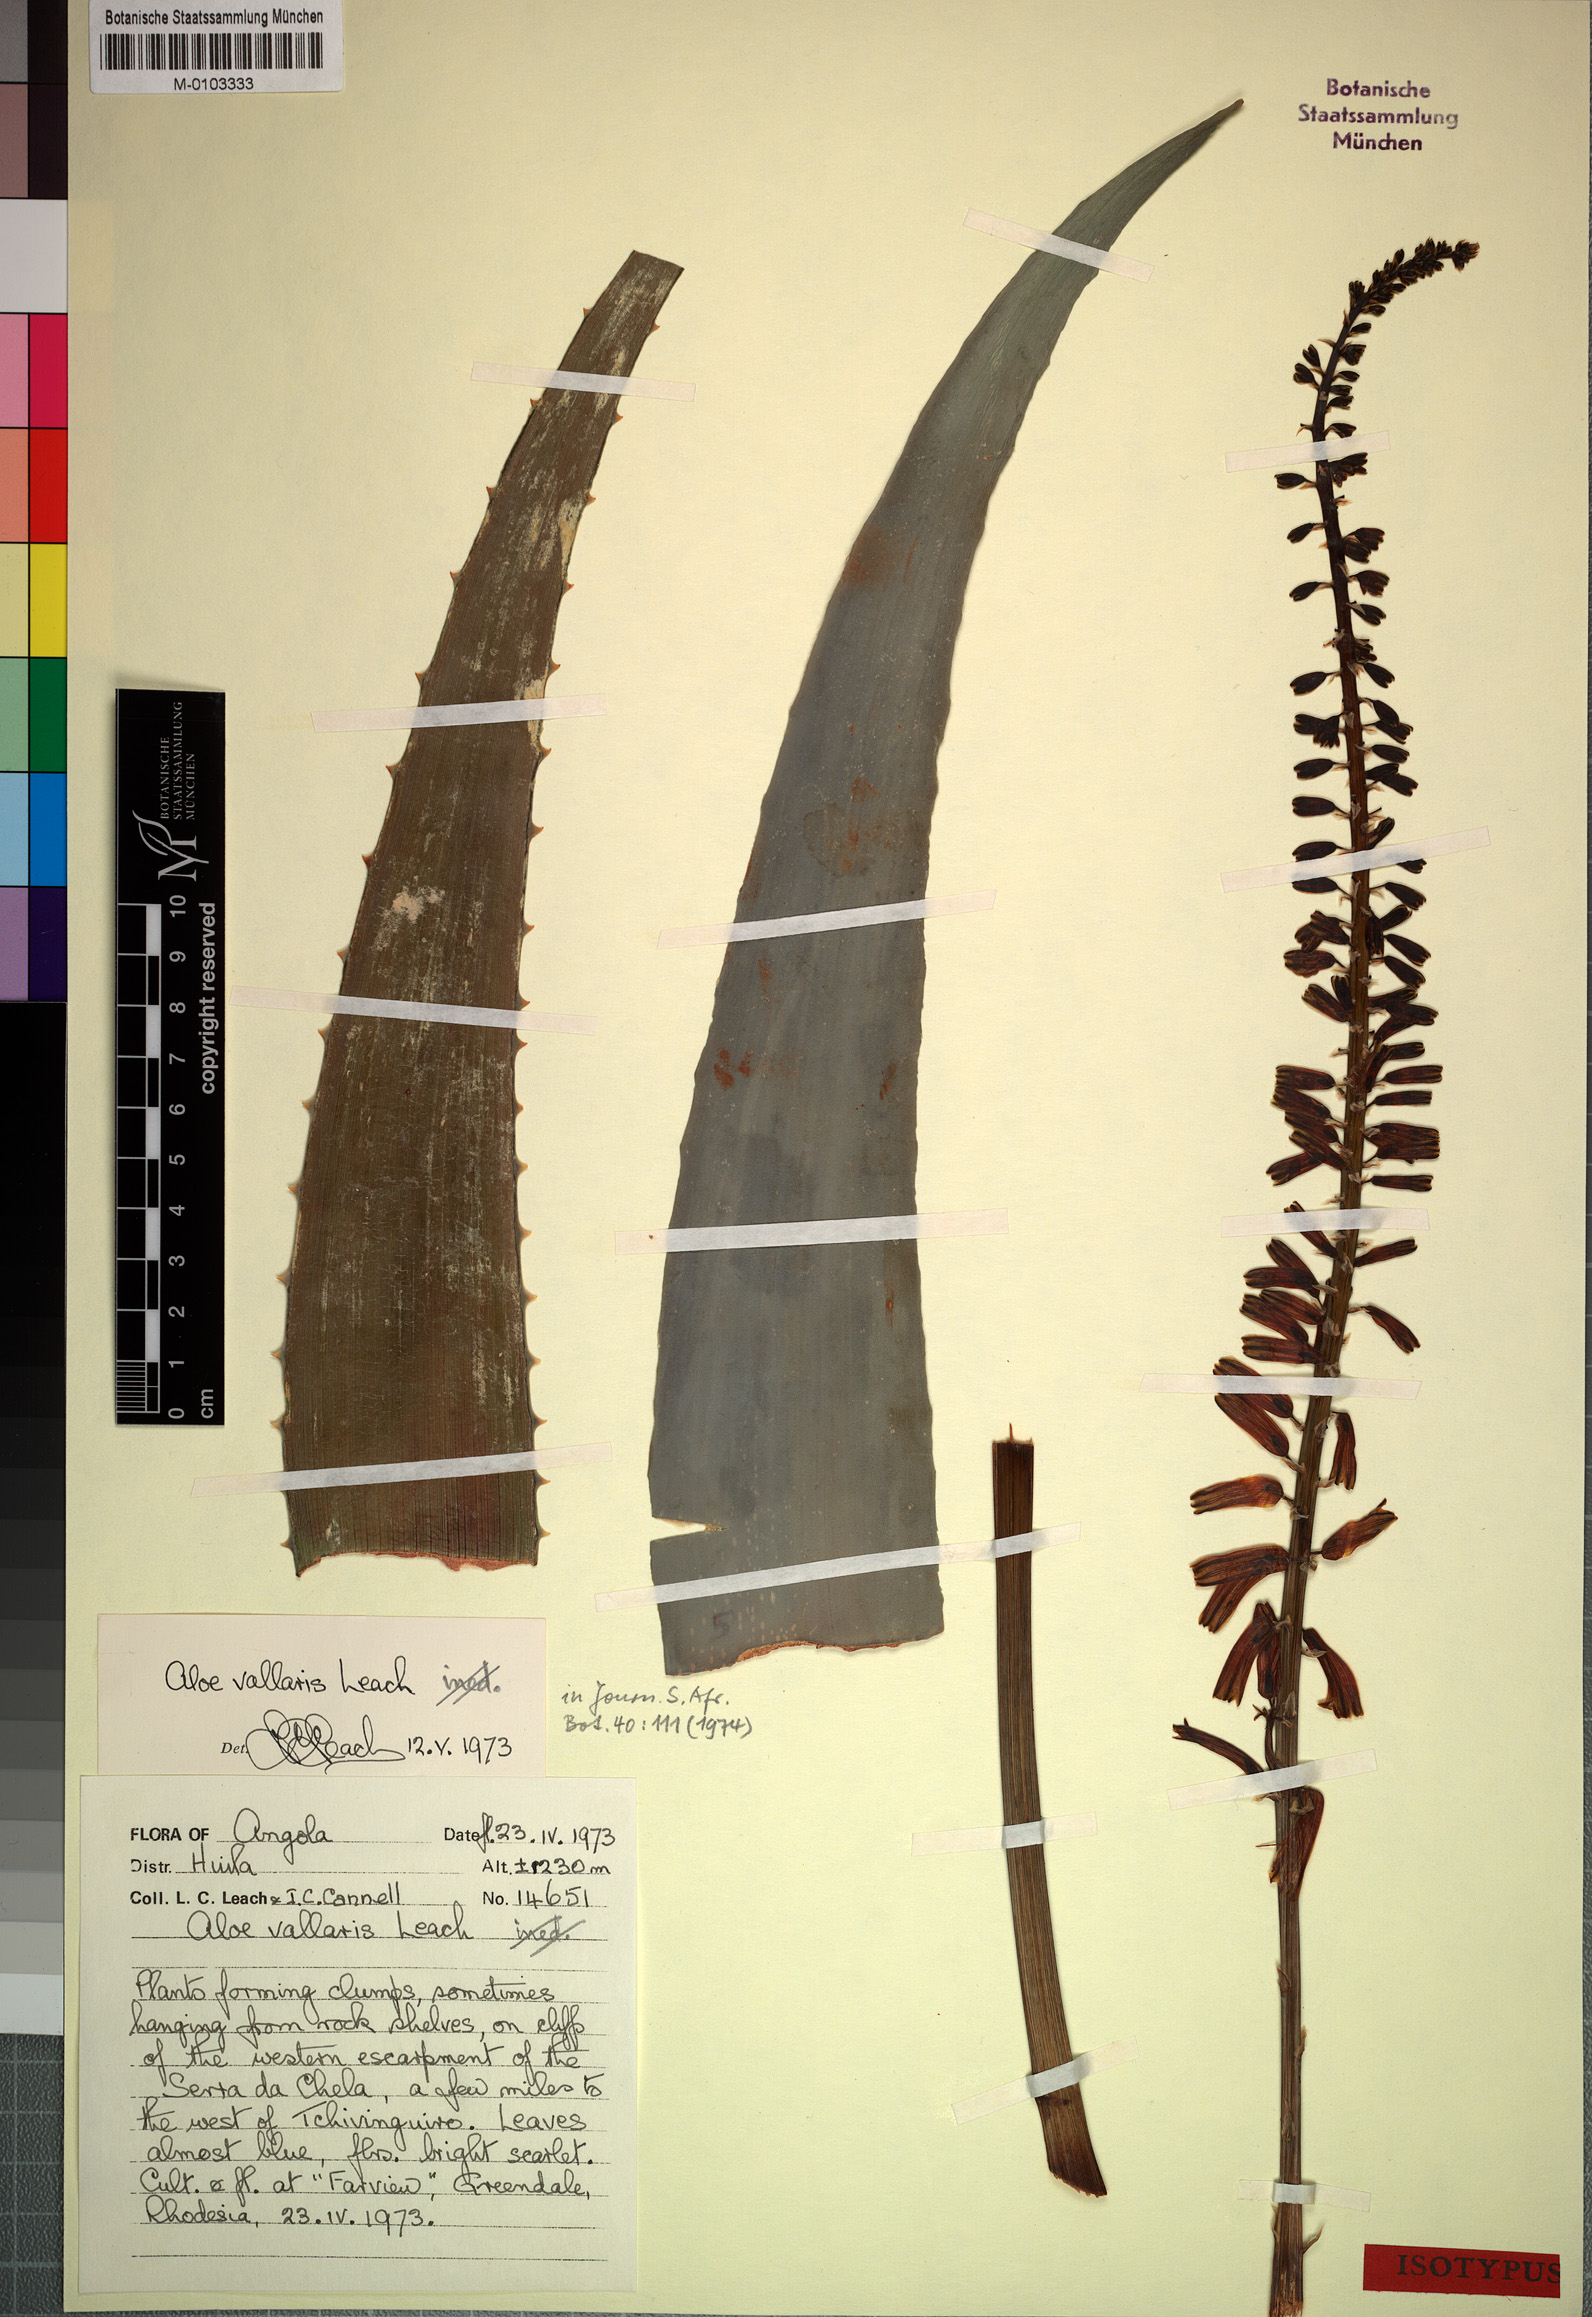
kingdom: Plantae
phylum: Tracheophyta
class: Liliopsida
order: Asparagales
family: Asphodelaceae
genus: Aloe
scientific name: Aloe
